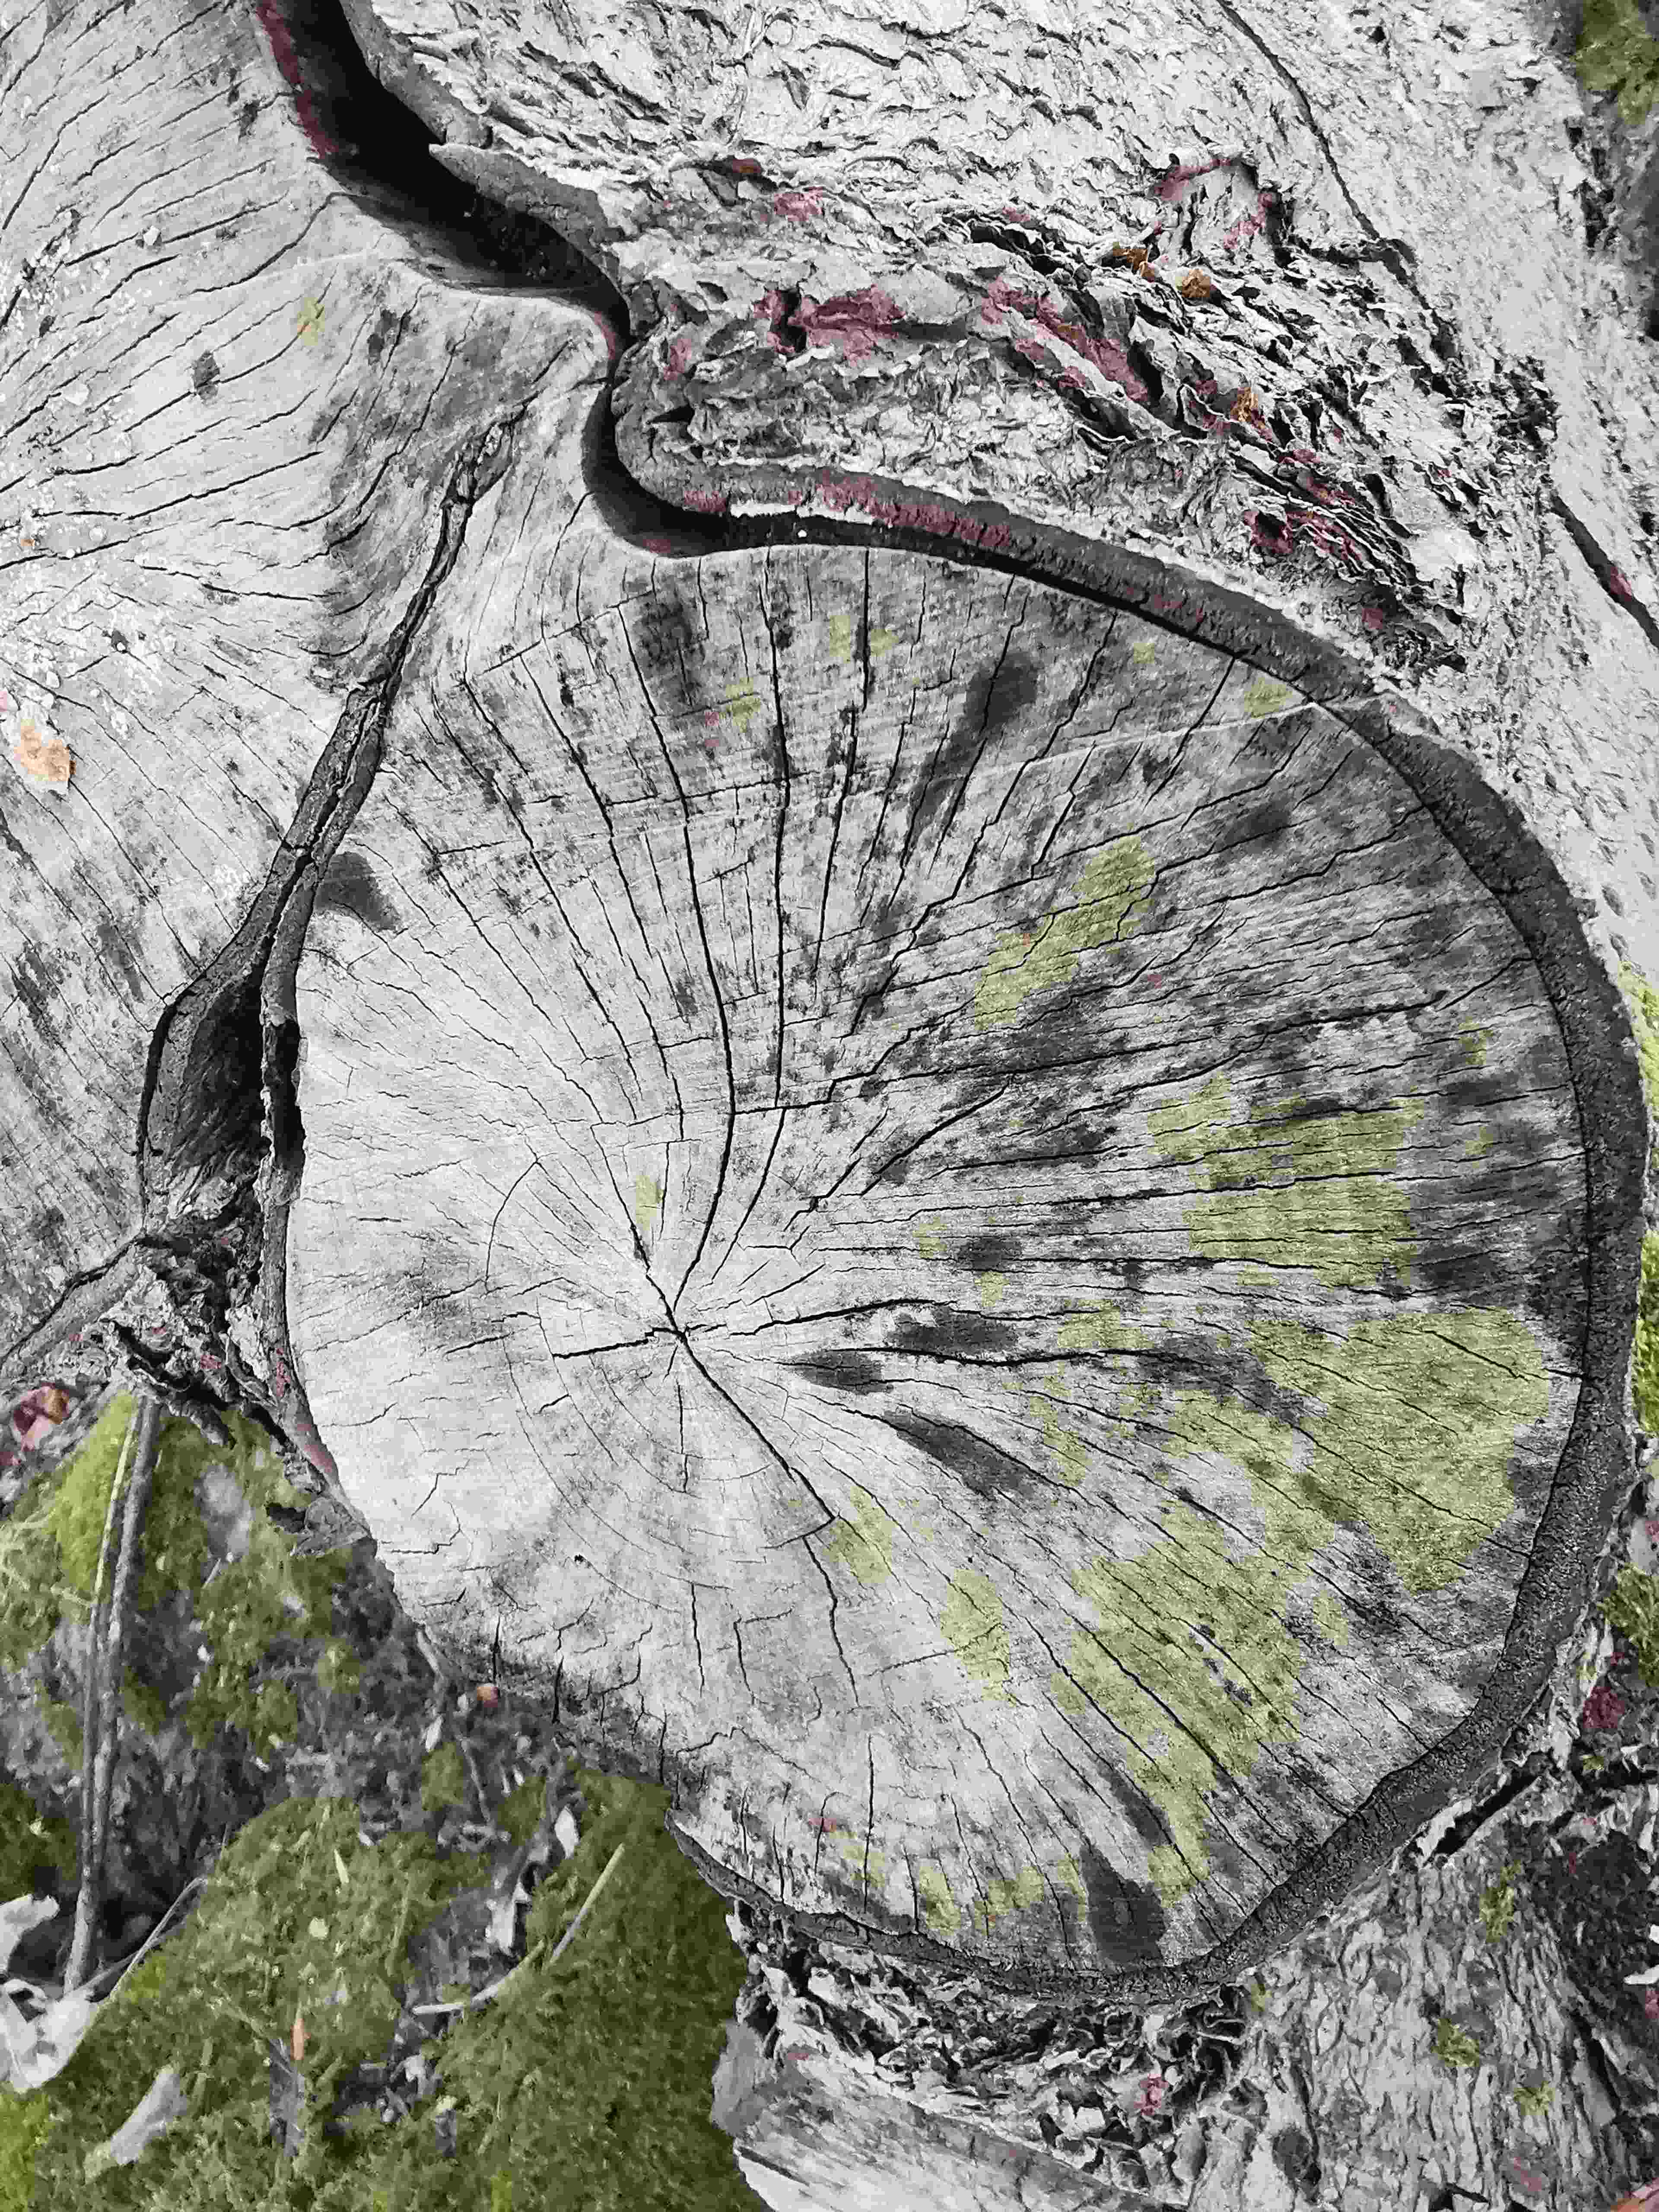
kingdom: Fungi
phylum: Ascomycota
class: Leotiomycetes
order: Helotiales
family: Helotiaceae
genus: Bispora
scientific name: Bispora pallescens
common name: måtte-snitskive
